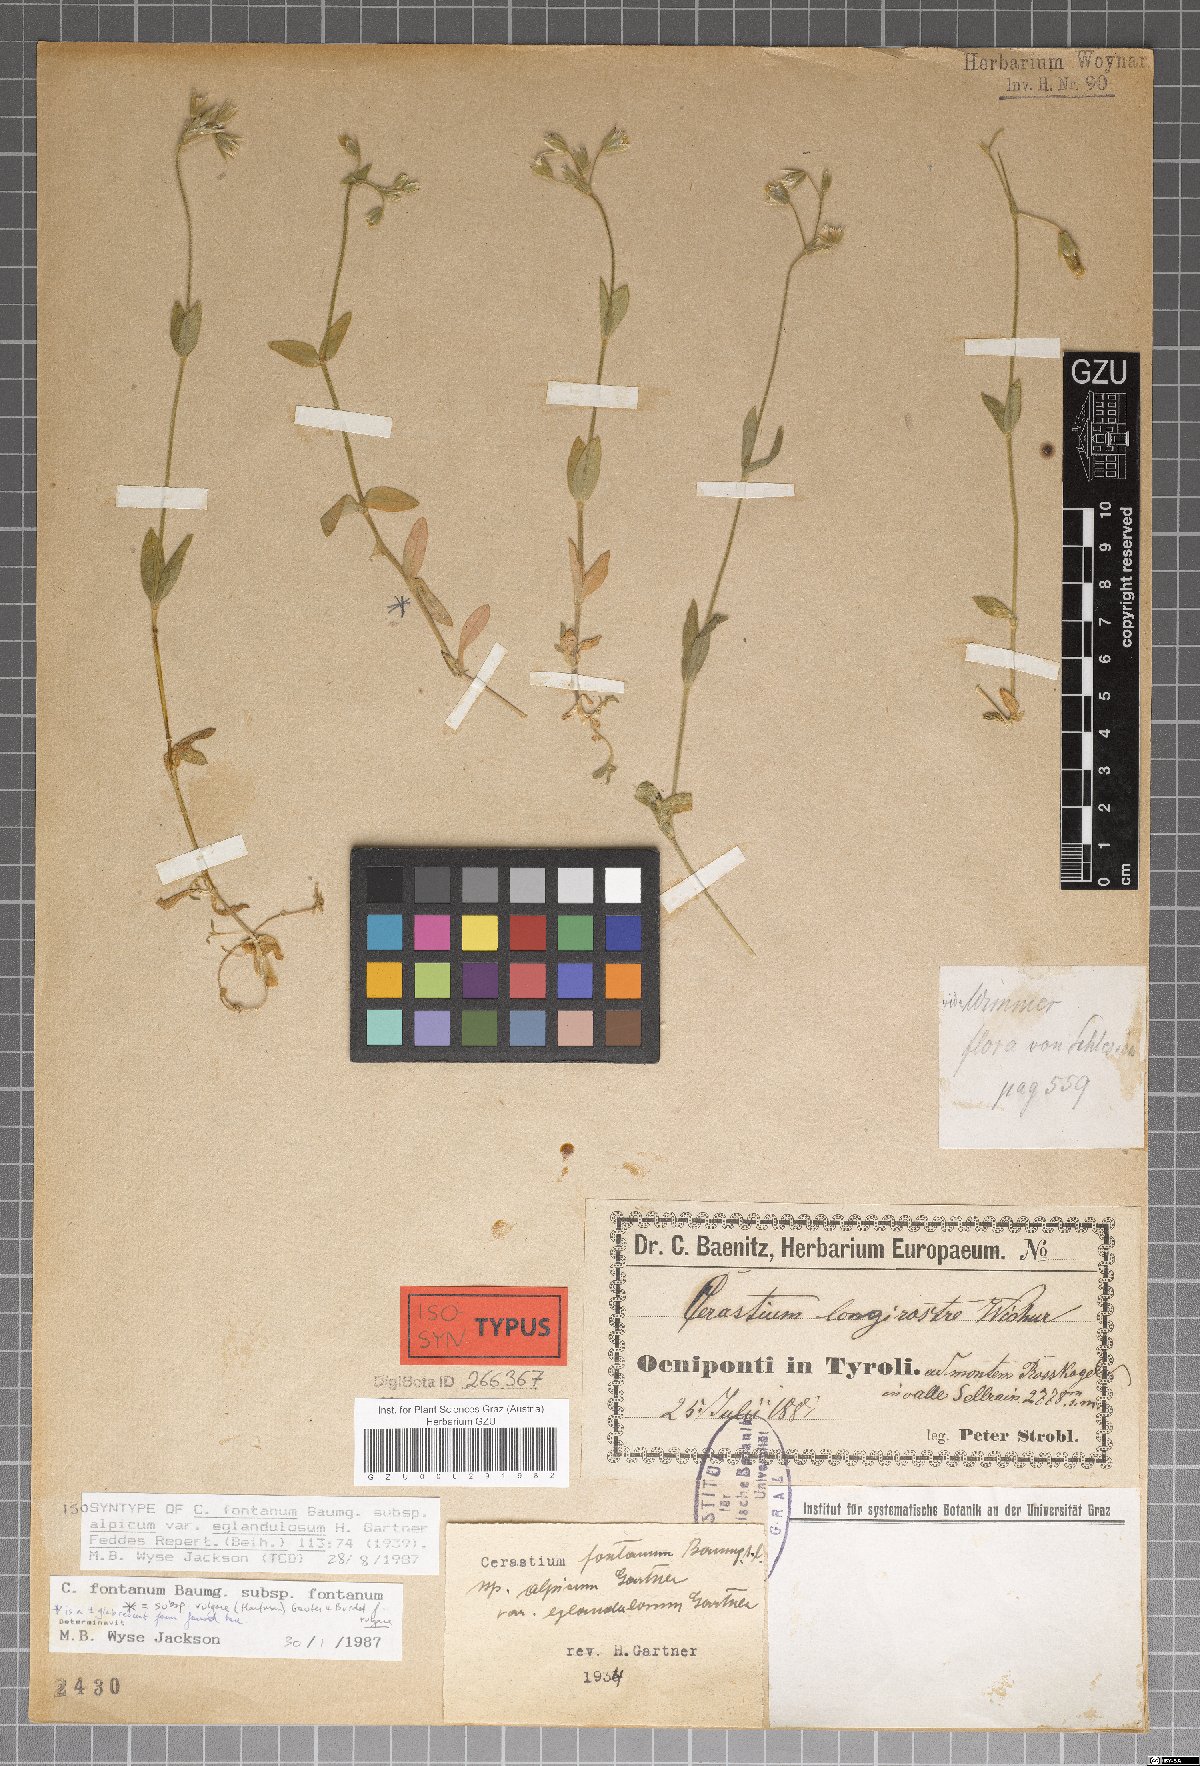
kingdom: Plantae
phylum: Tracheophyta
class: Magnoliopsida
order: Caryophyllales
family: Caryophyllaceae
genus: Cerastium
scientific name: Cerastium holosteoides
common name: Big chickweed
